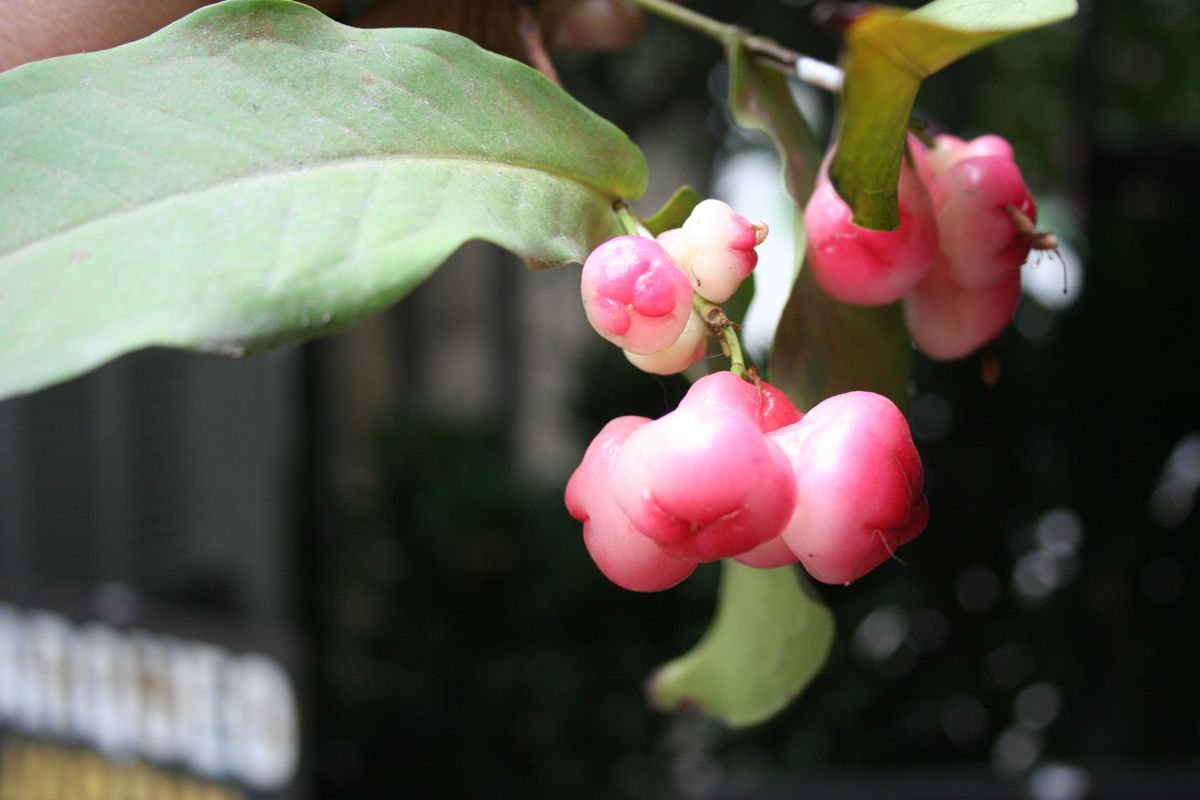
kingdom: Plantae
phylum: Tracheophyta
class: Magnoliopsida
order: Myrtales
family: Myrtaceae
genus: Syzygium
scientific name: Syzygium
